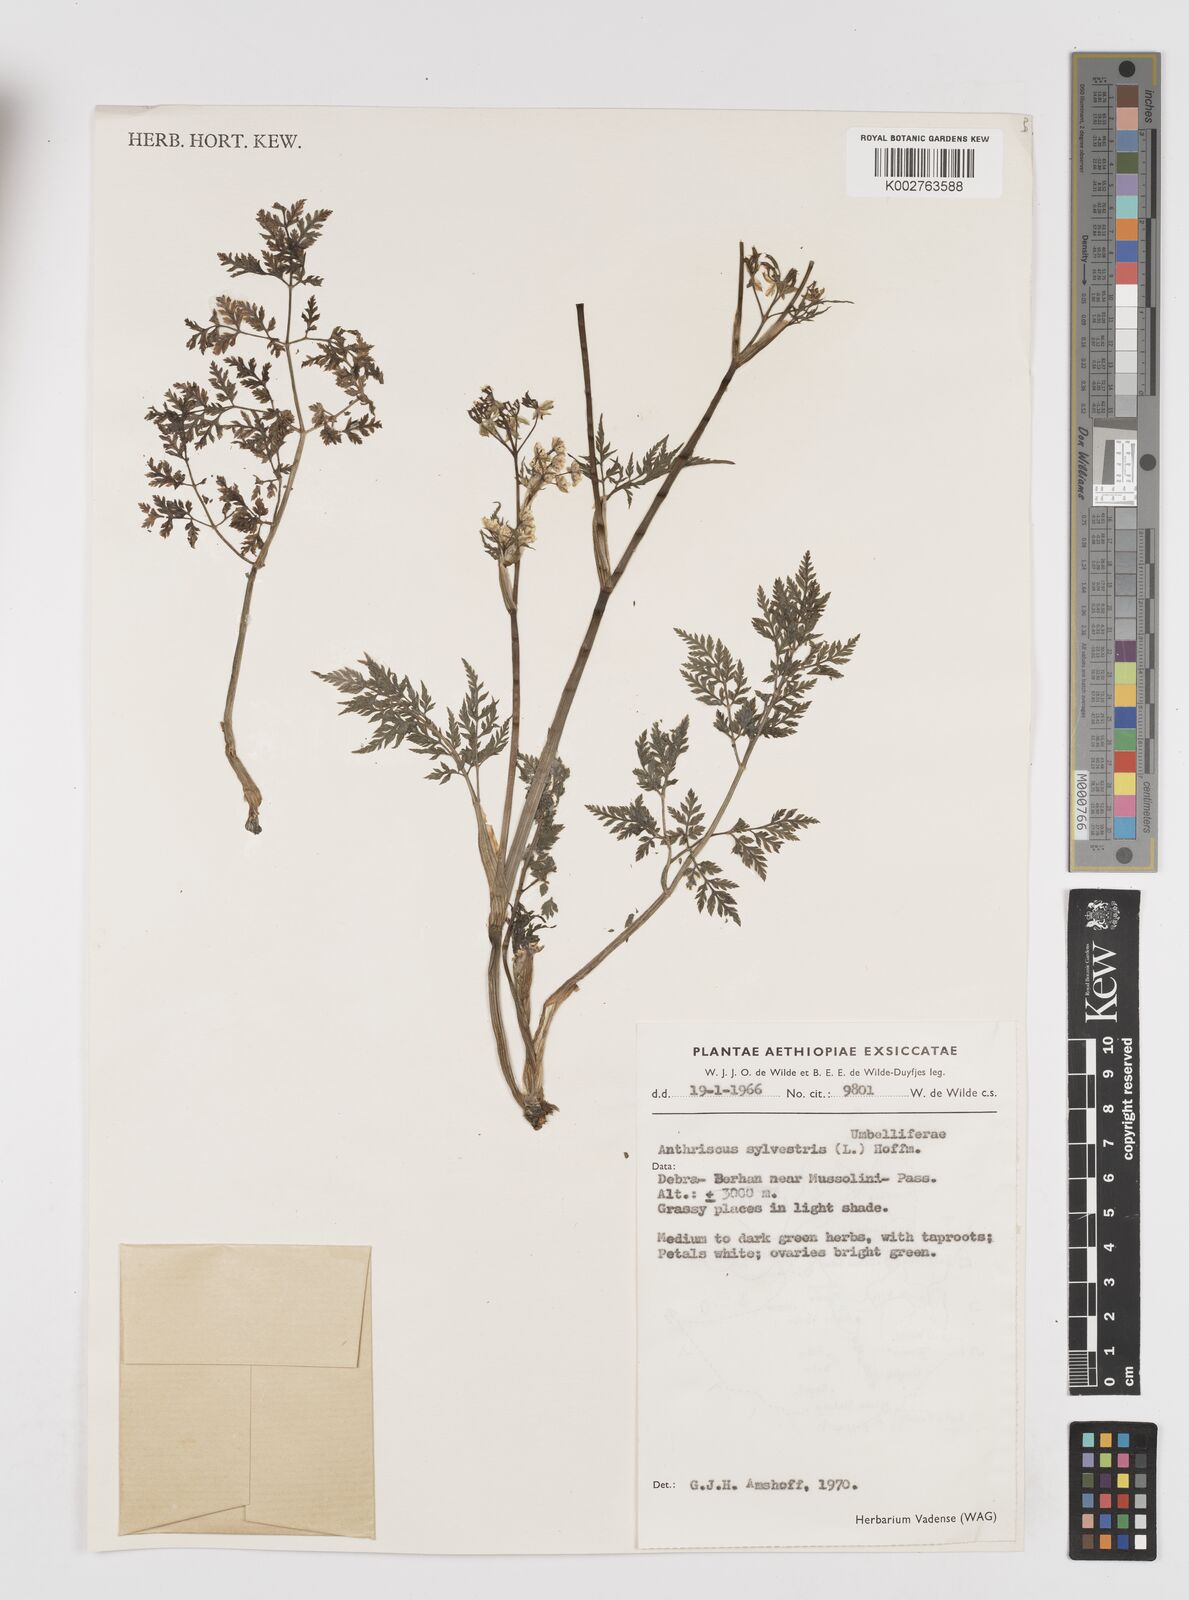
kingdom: Plantae
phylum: Tracheophyta
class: Magnoliopsida
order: Apiales
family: Apiaceae
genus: Anthriscus
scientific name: Anthriscus sylvestris
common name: Cow parsley
